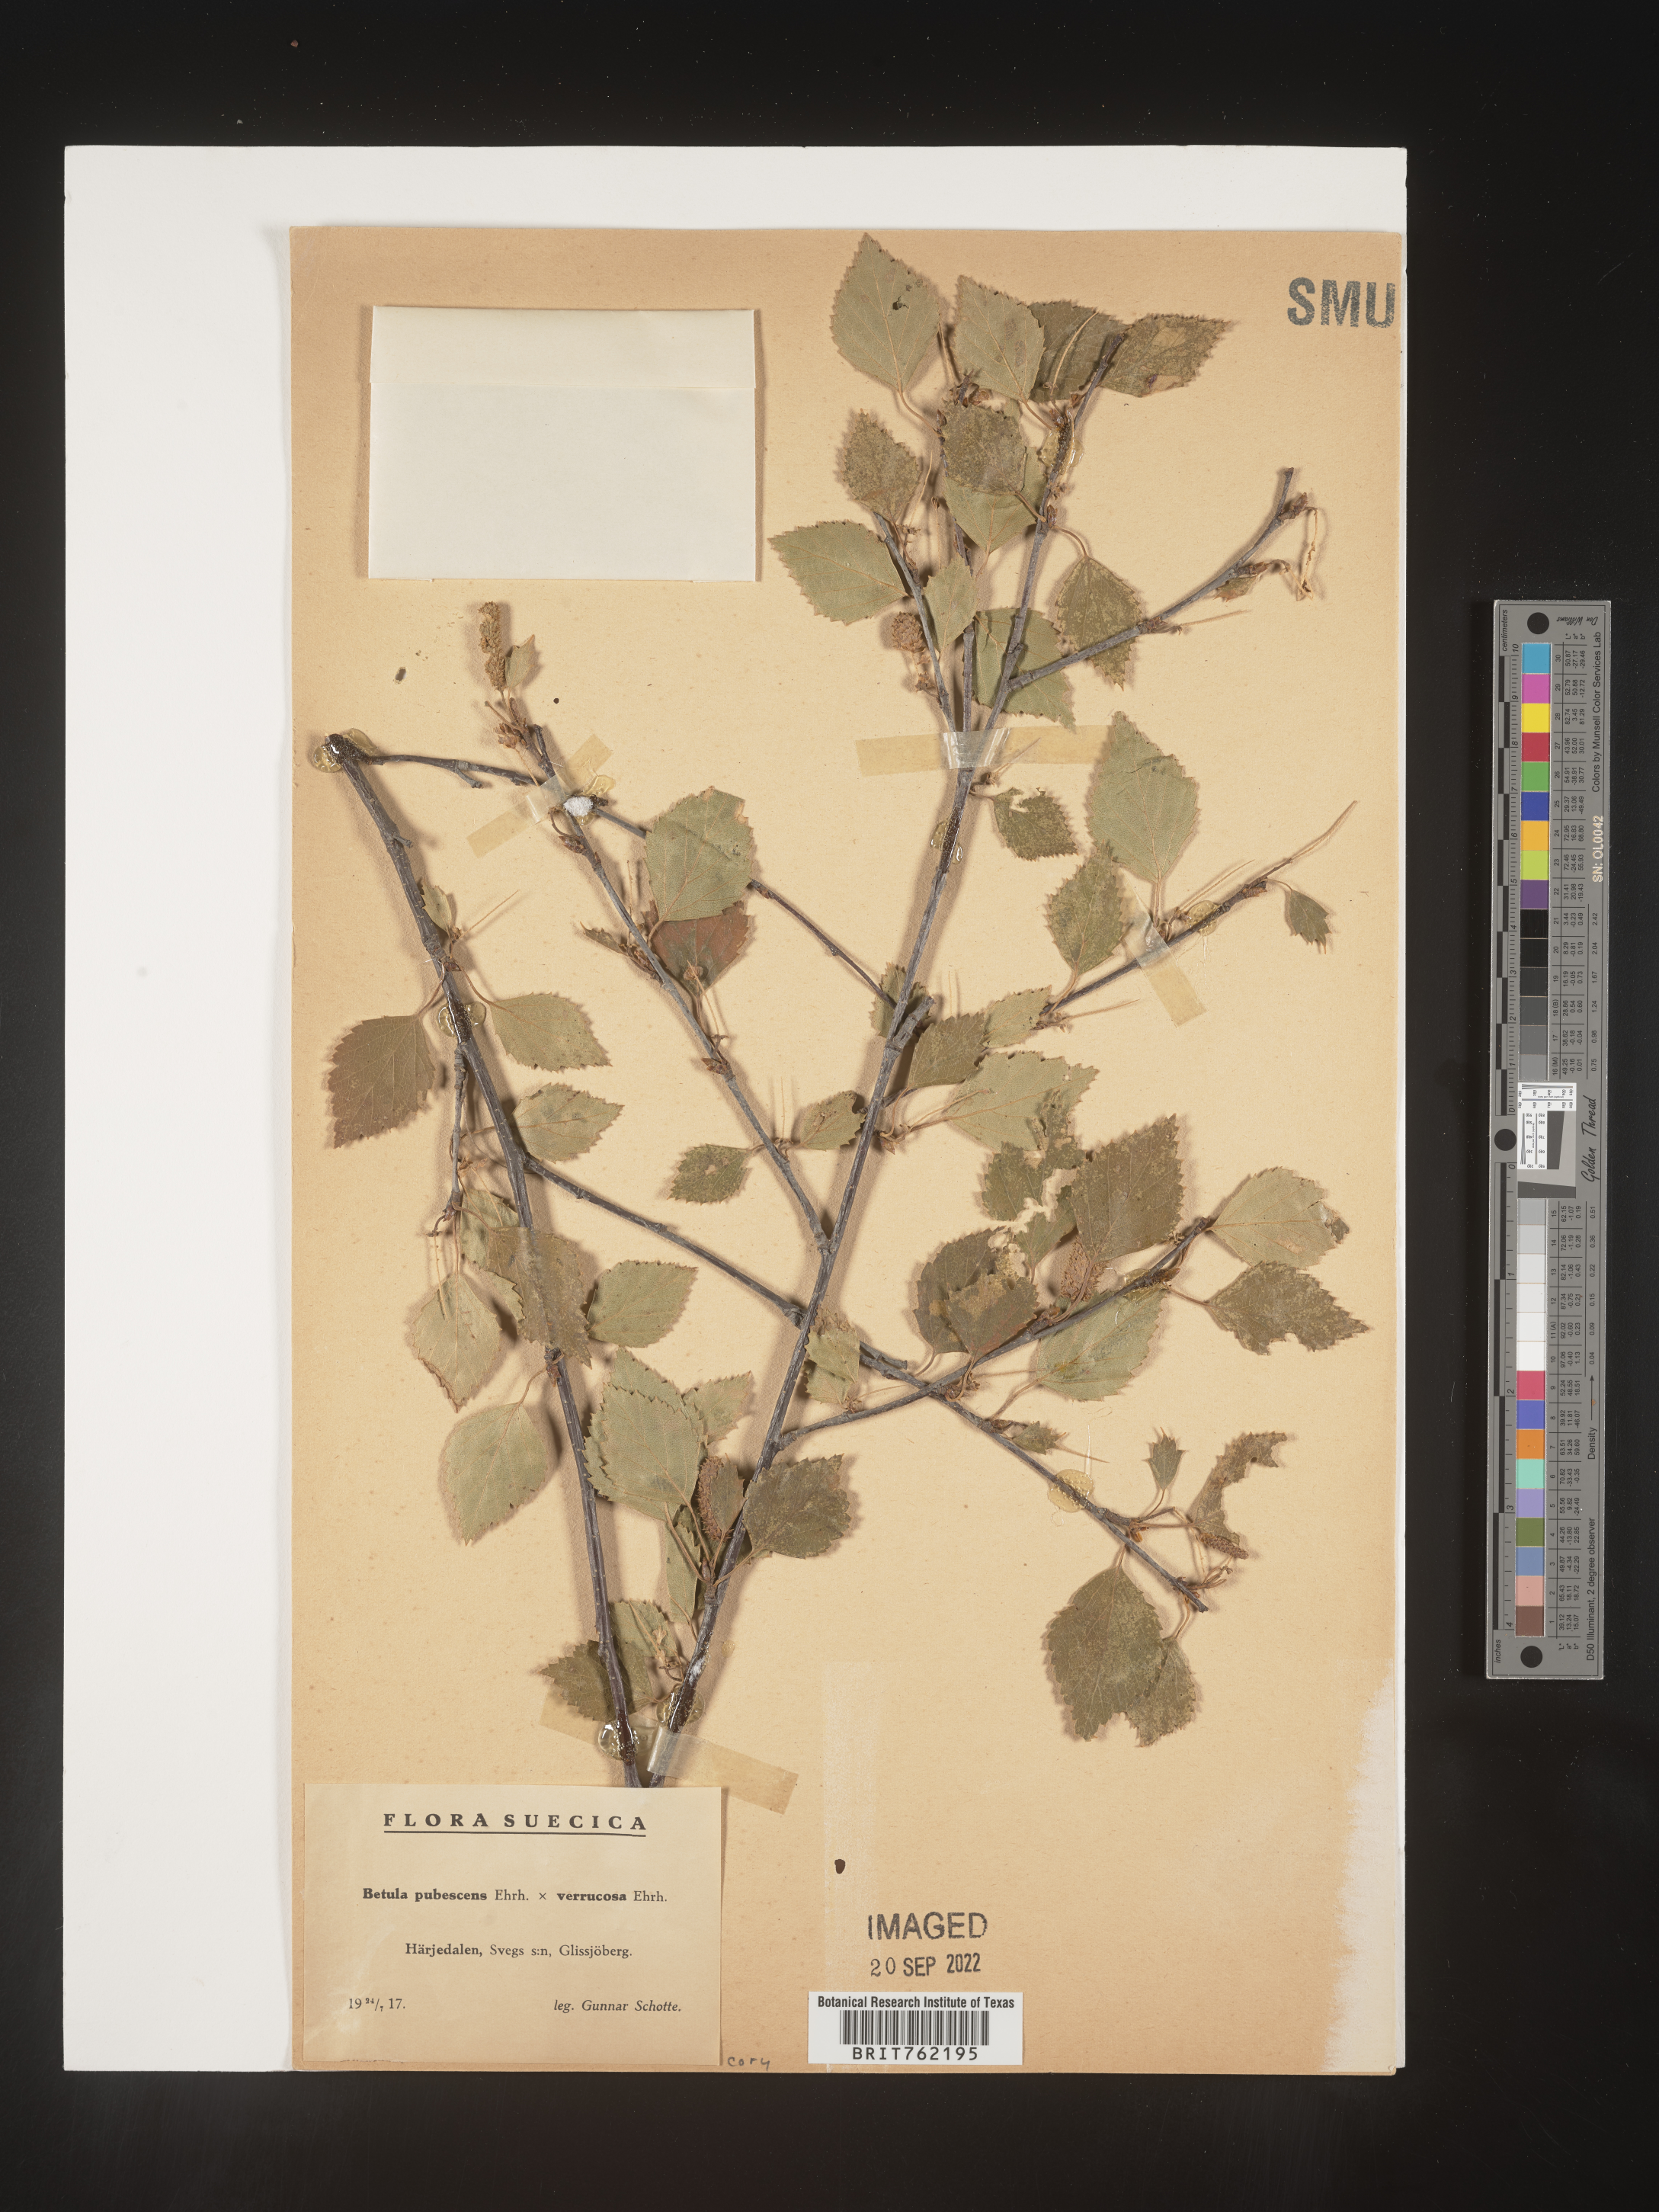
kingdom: Plantae
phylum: Tracheophyta
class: Magnoliopsida
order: Fagales
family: Betulaceae
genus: Betula
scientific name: Betula
